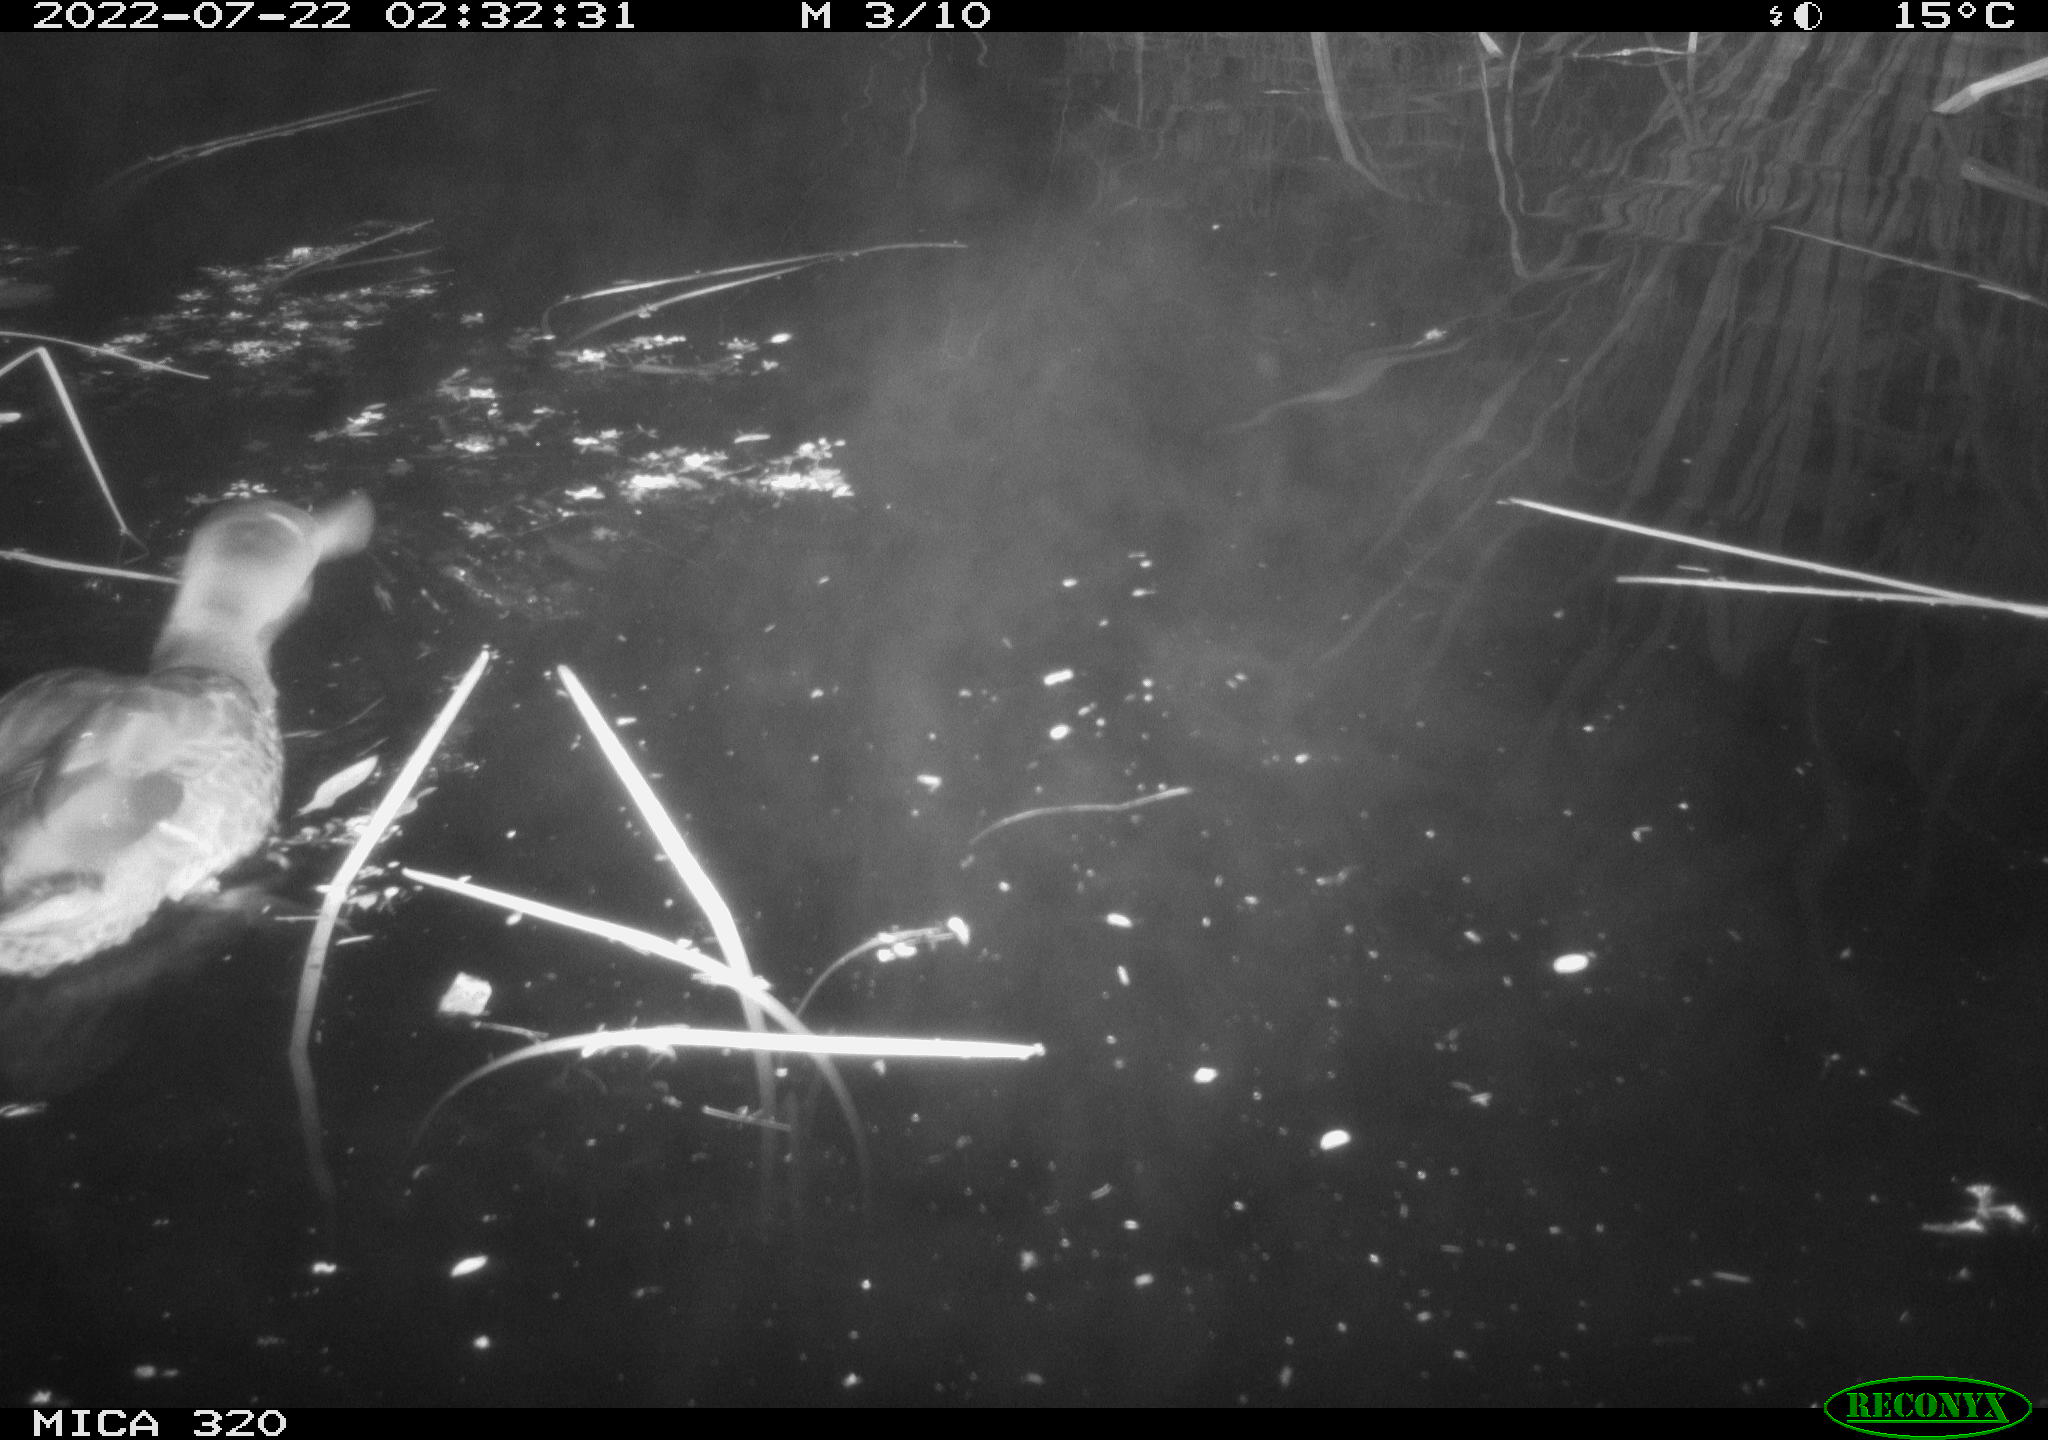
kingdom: Animalia
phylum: Chordata
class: Aves
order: Anseriformes
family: Anatidae
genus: Anas
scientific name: Anas platyrhynchos
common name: Mallard
